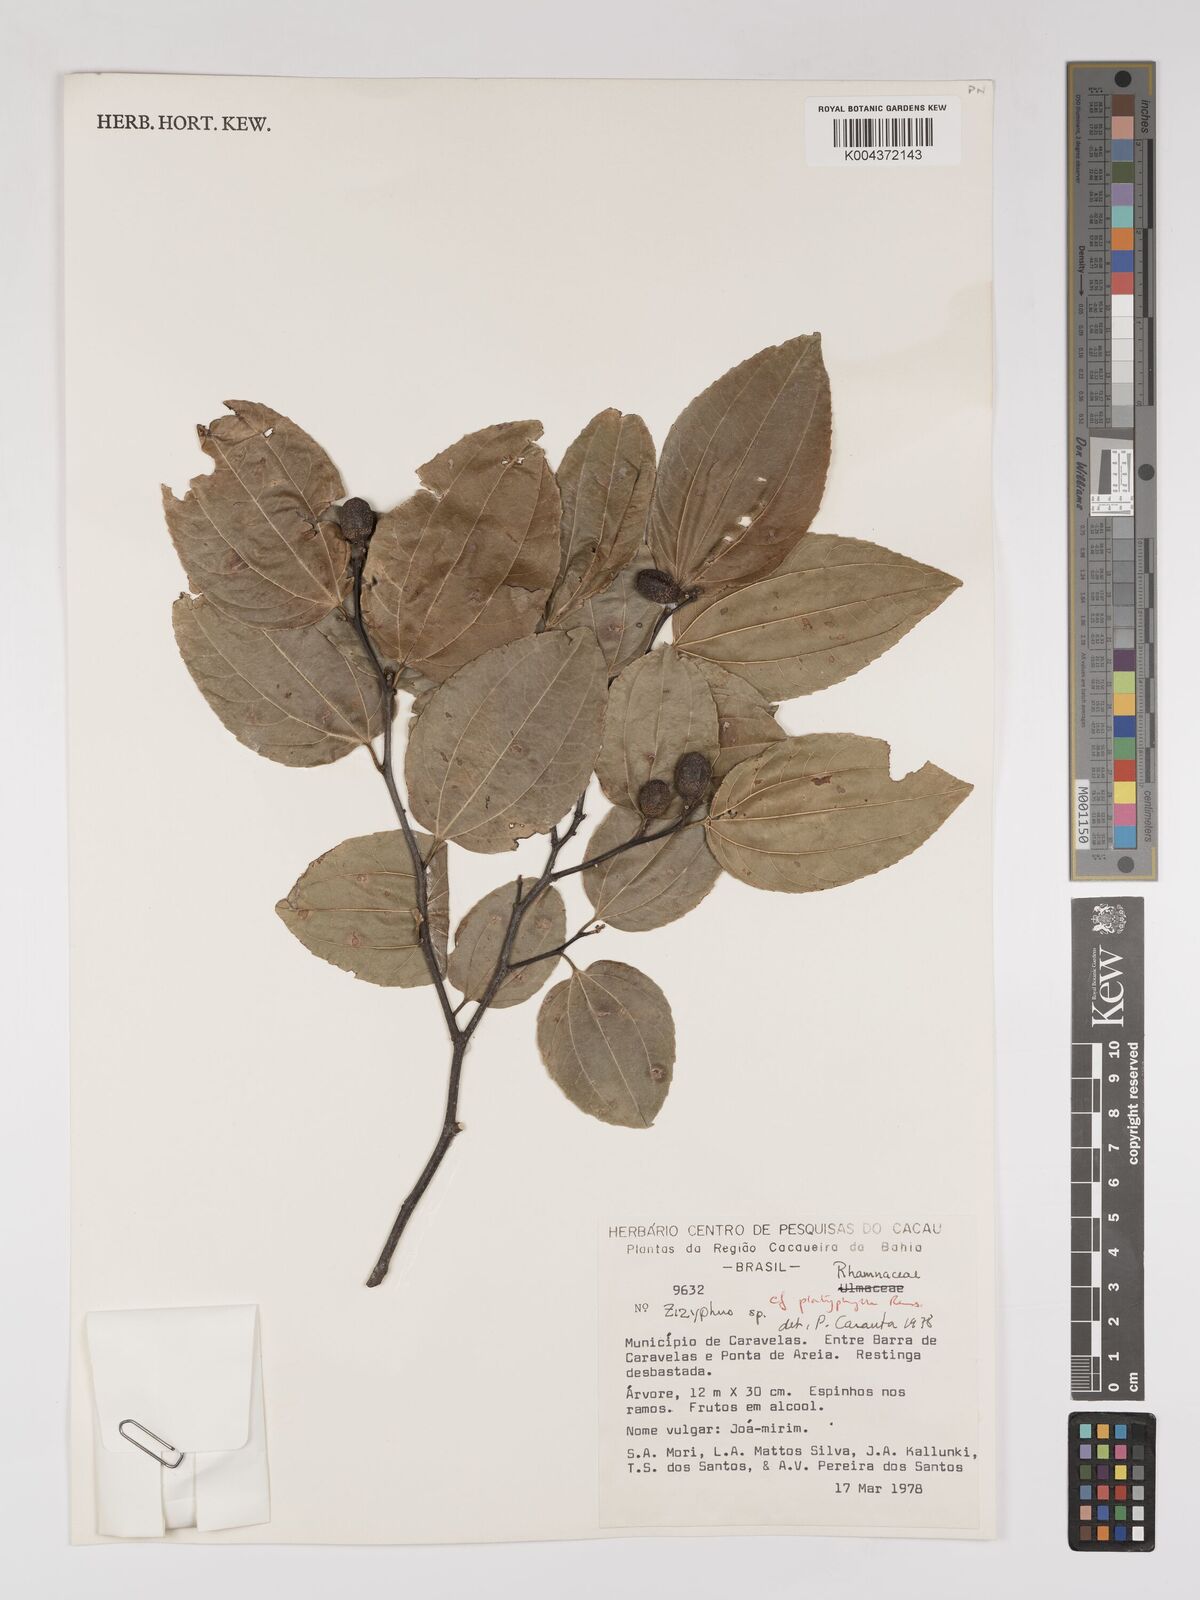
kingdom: Plantae
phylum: Tracheophyta
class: Magnoliopsida
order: Rosales
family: Rhamnaceae
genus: Sarcomphalus
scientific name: Sarcomphalus platyphyllus
